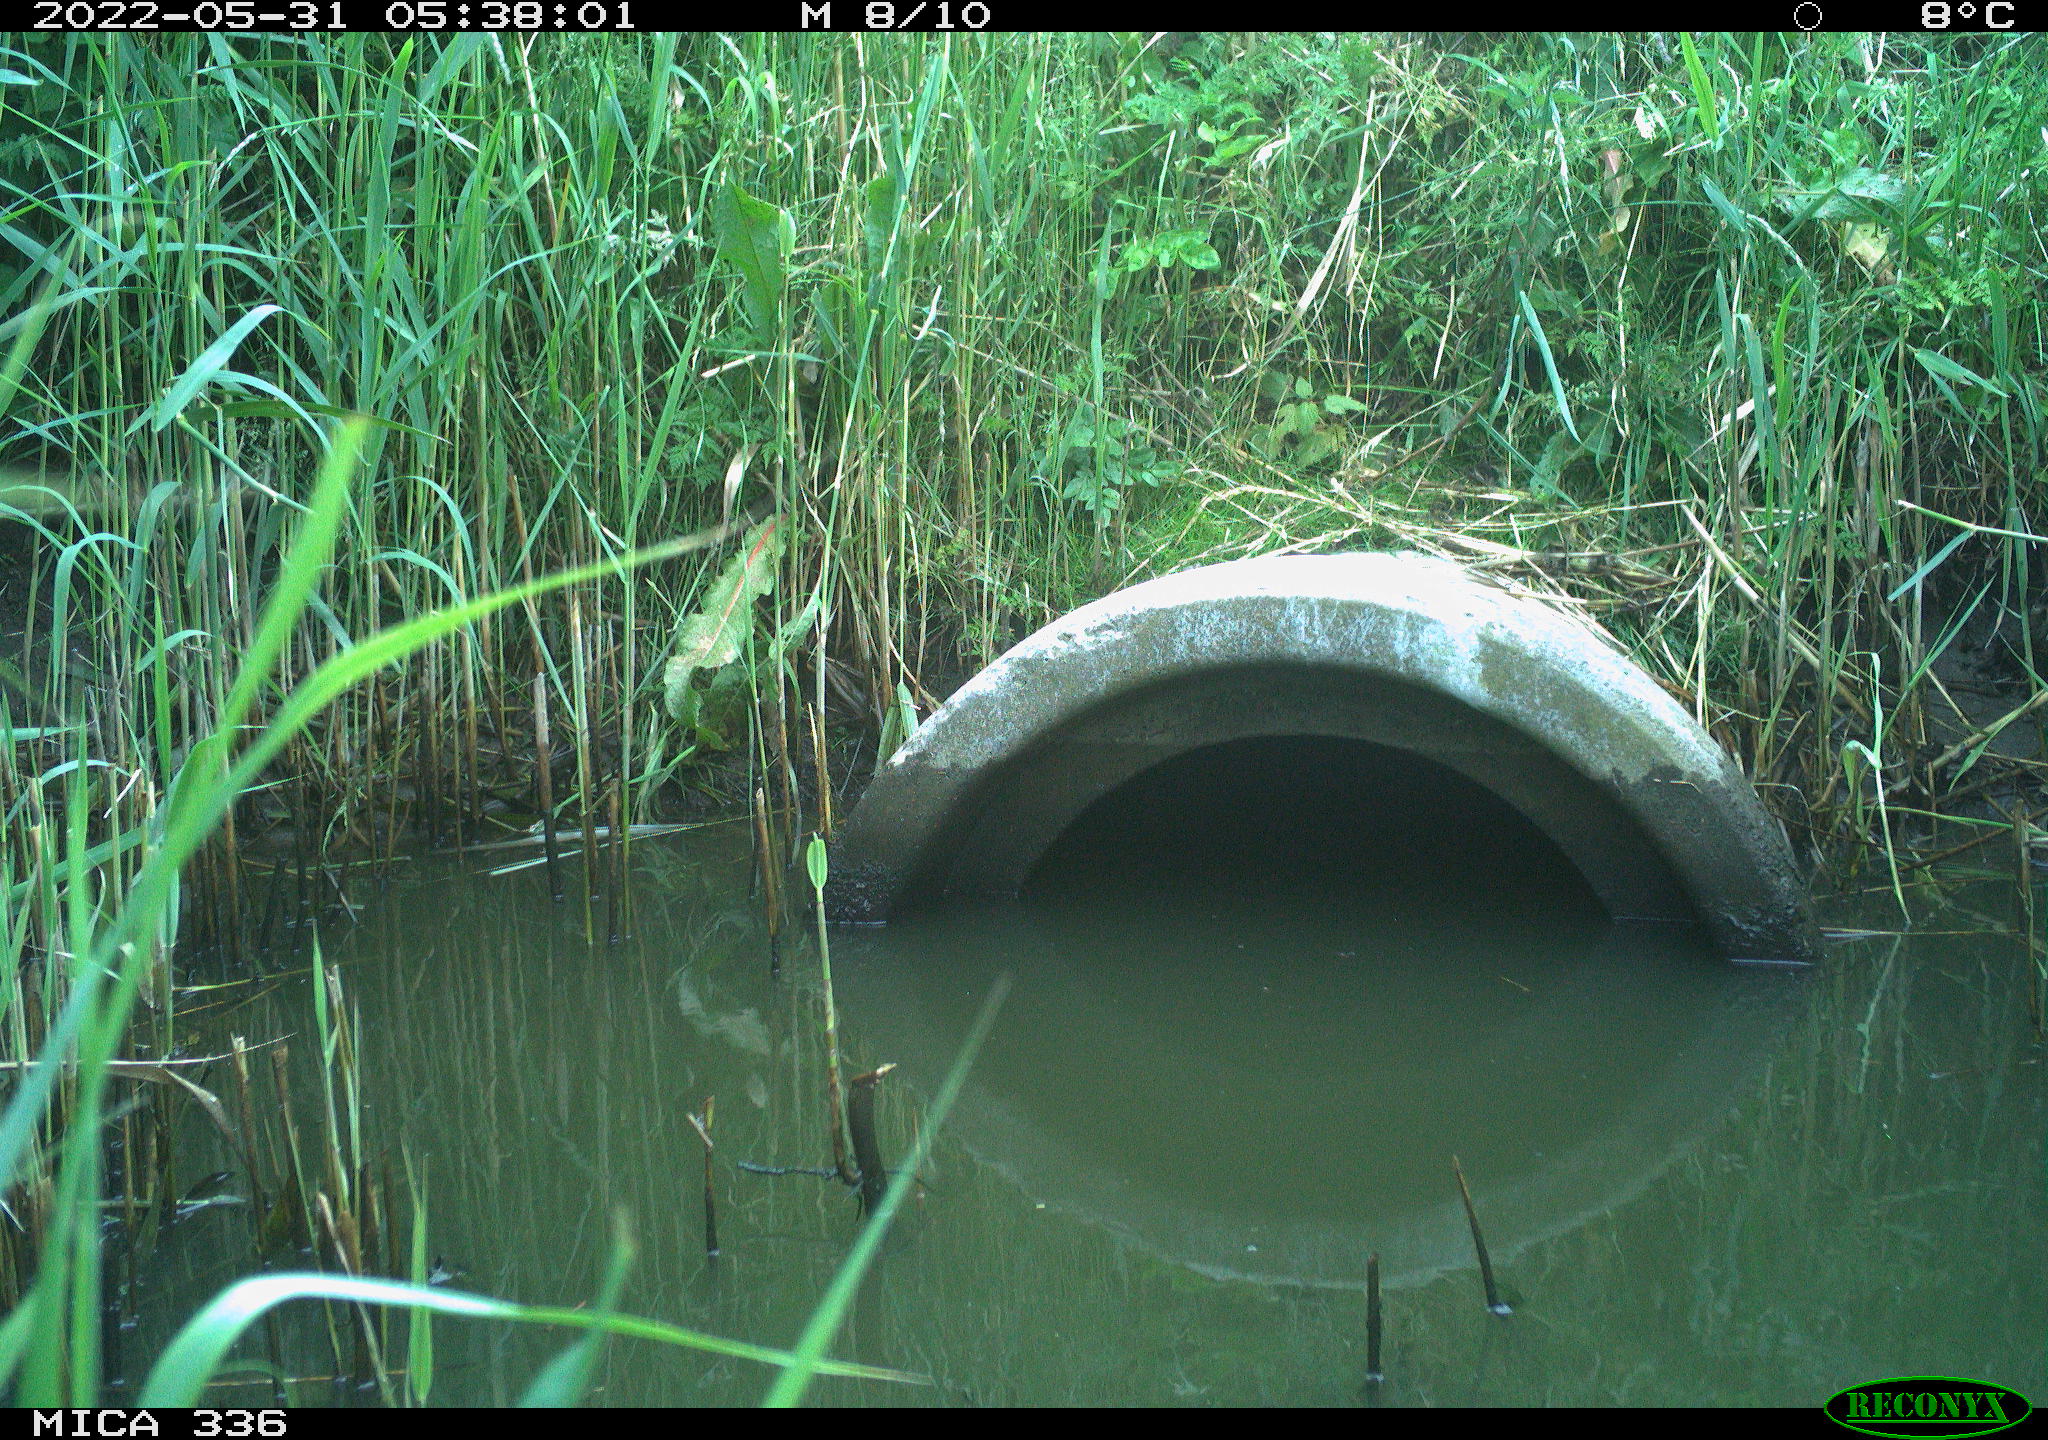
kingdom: Animalia
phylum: Chordata
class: Aves
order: Pelecaniformes
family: Ardeidae
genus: Ardea
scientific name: Ardea cinerea
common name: Grey heron
